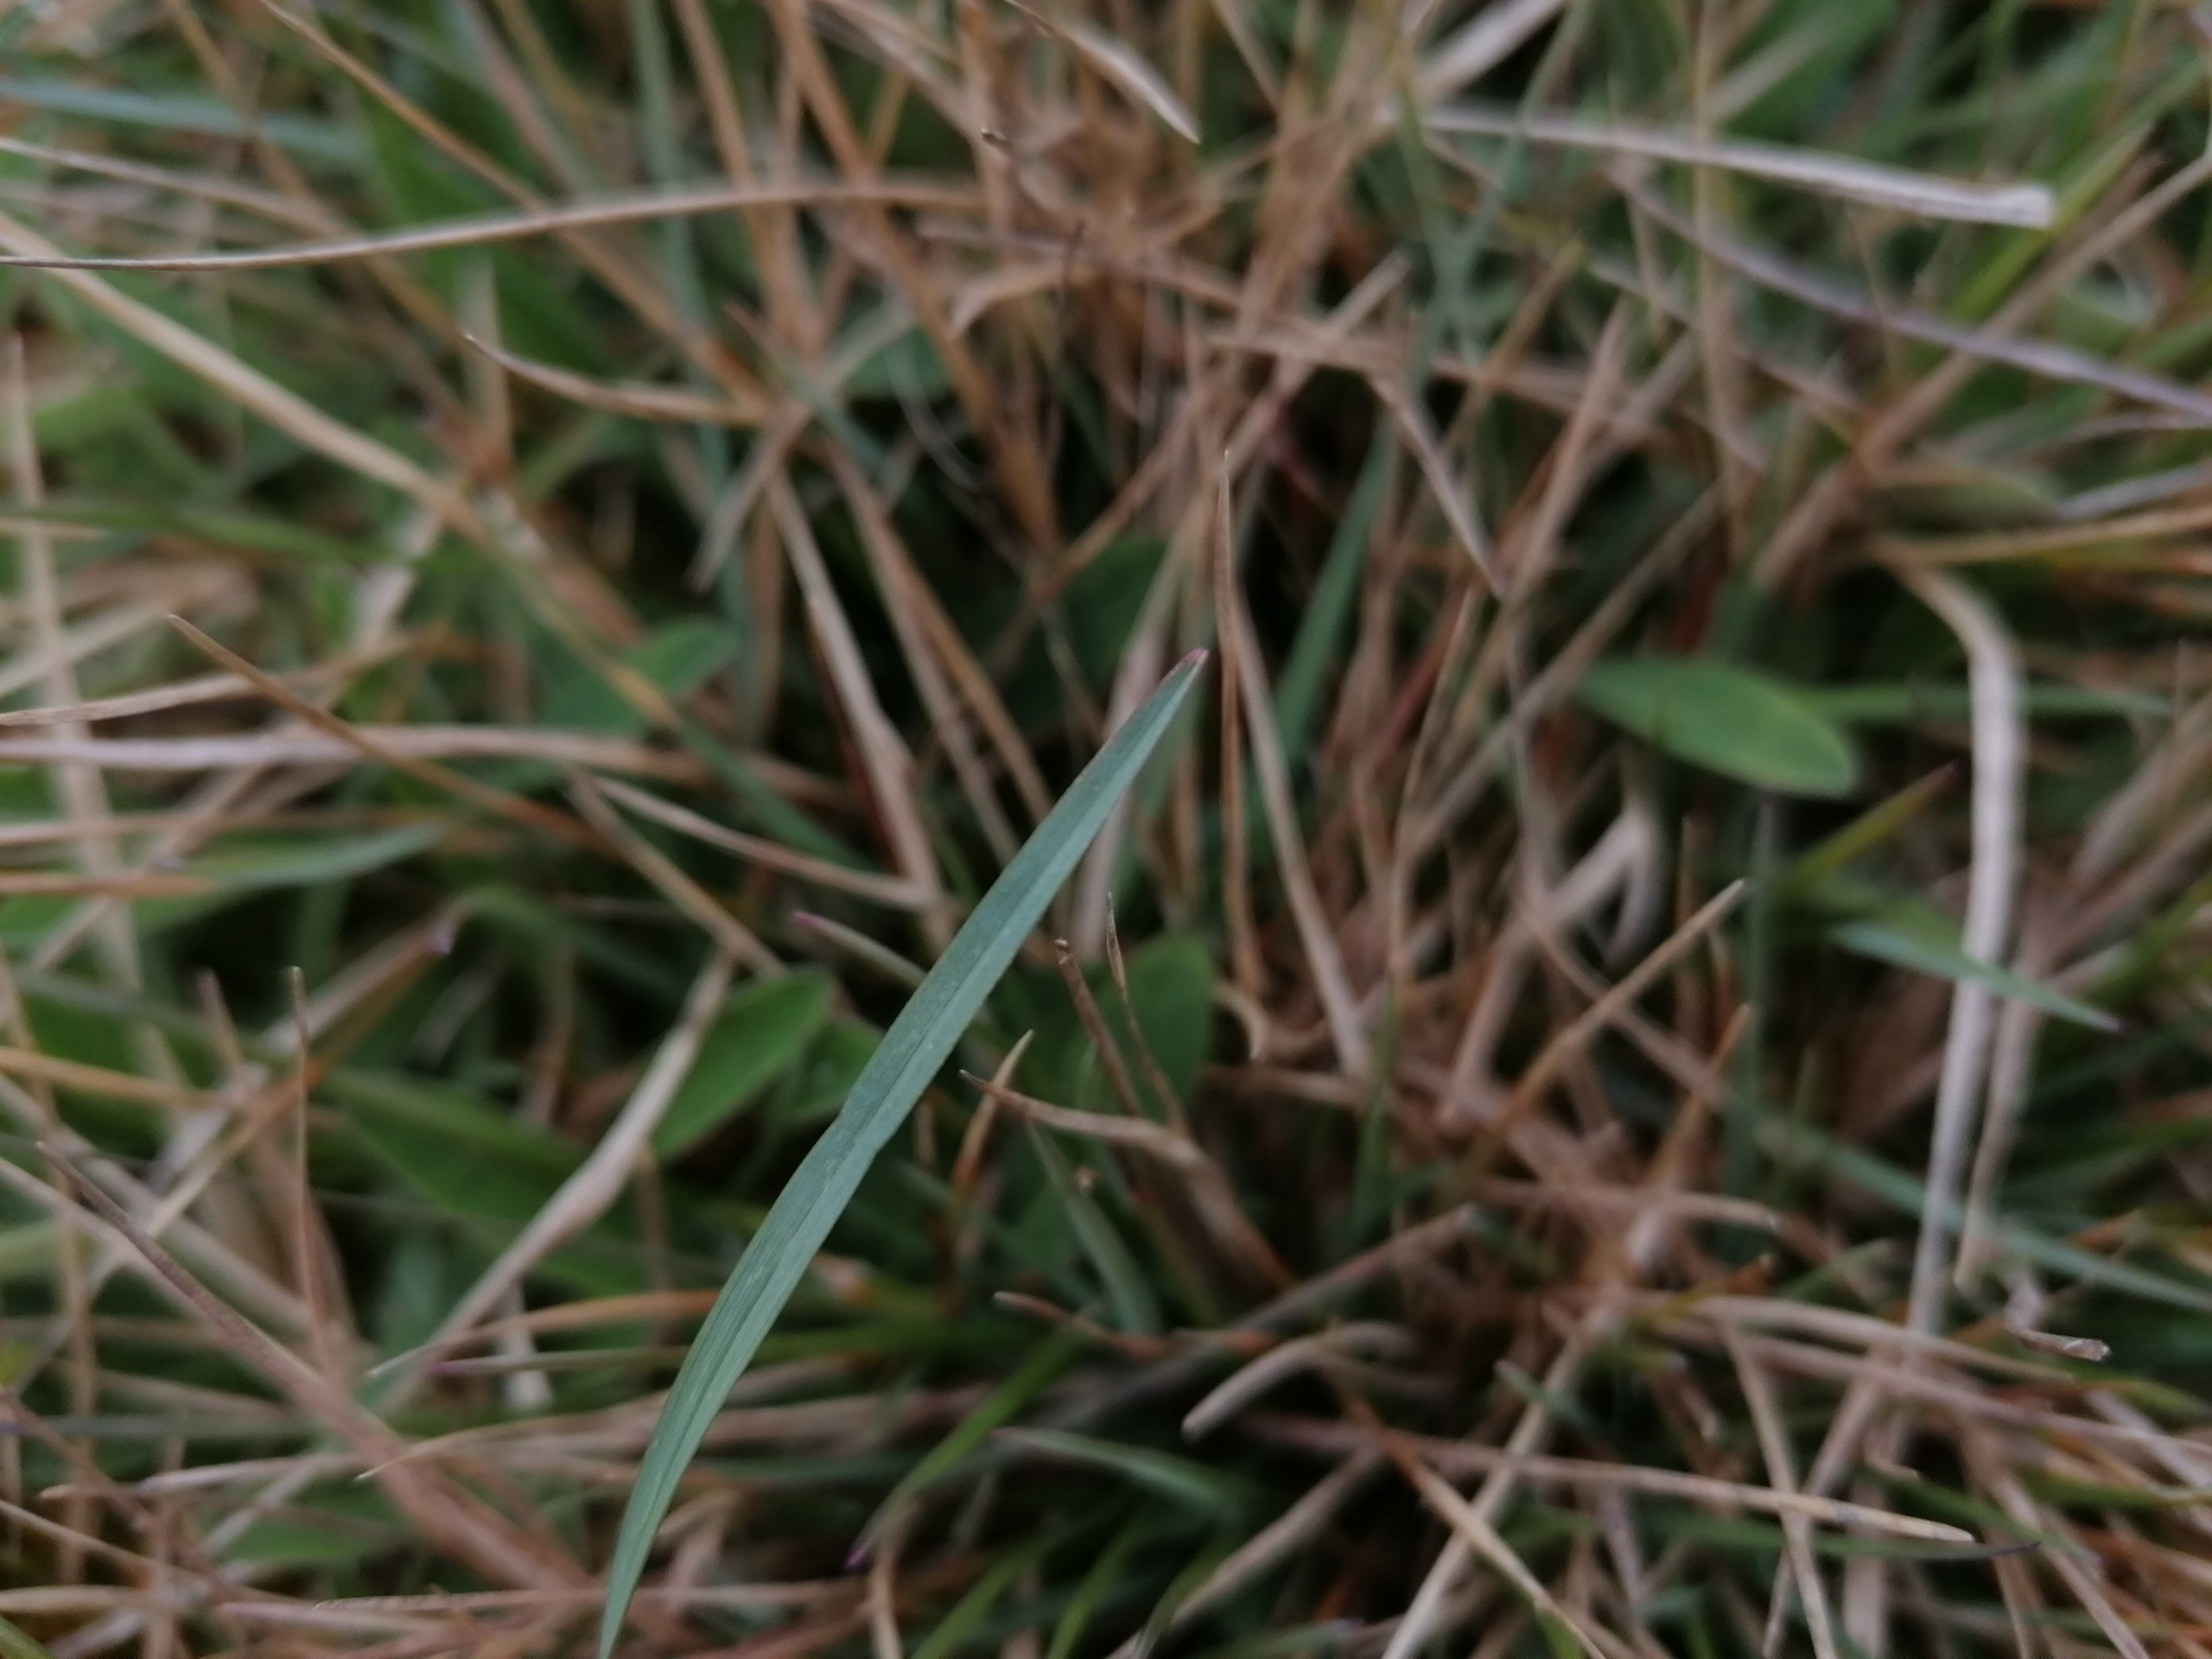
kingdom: Plantae
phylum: Tracheophyta
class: Liliopsida
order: Poales
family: Poaceae
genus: Helictochloa
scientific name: Helictochloa pratensis
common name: Eng-havre
